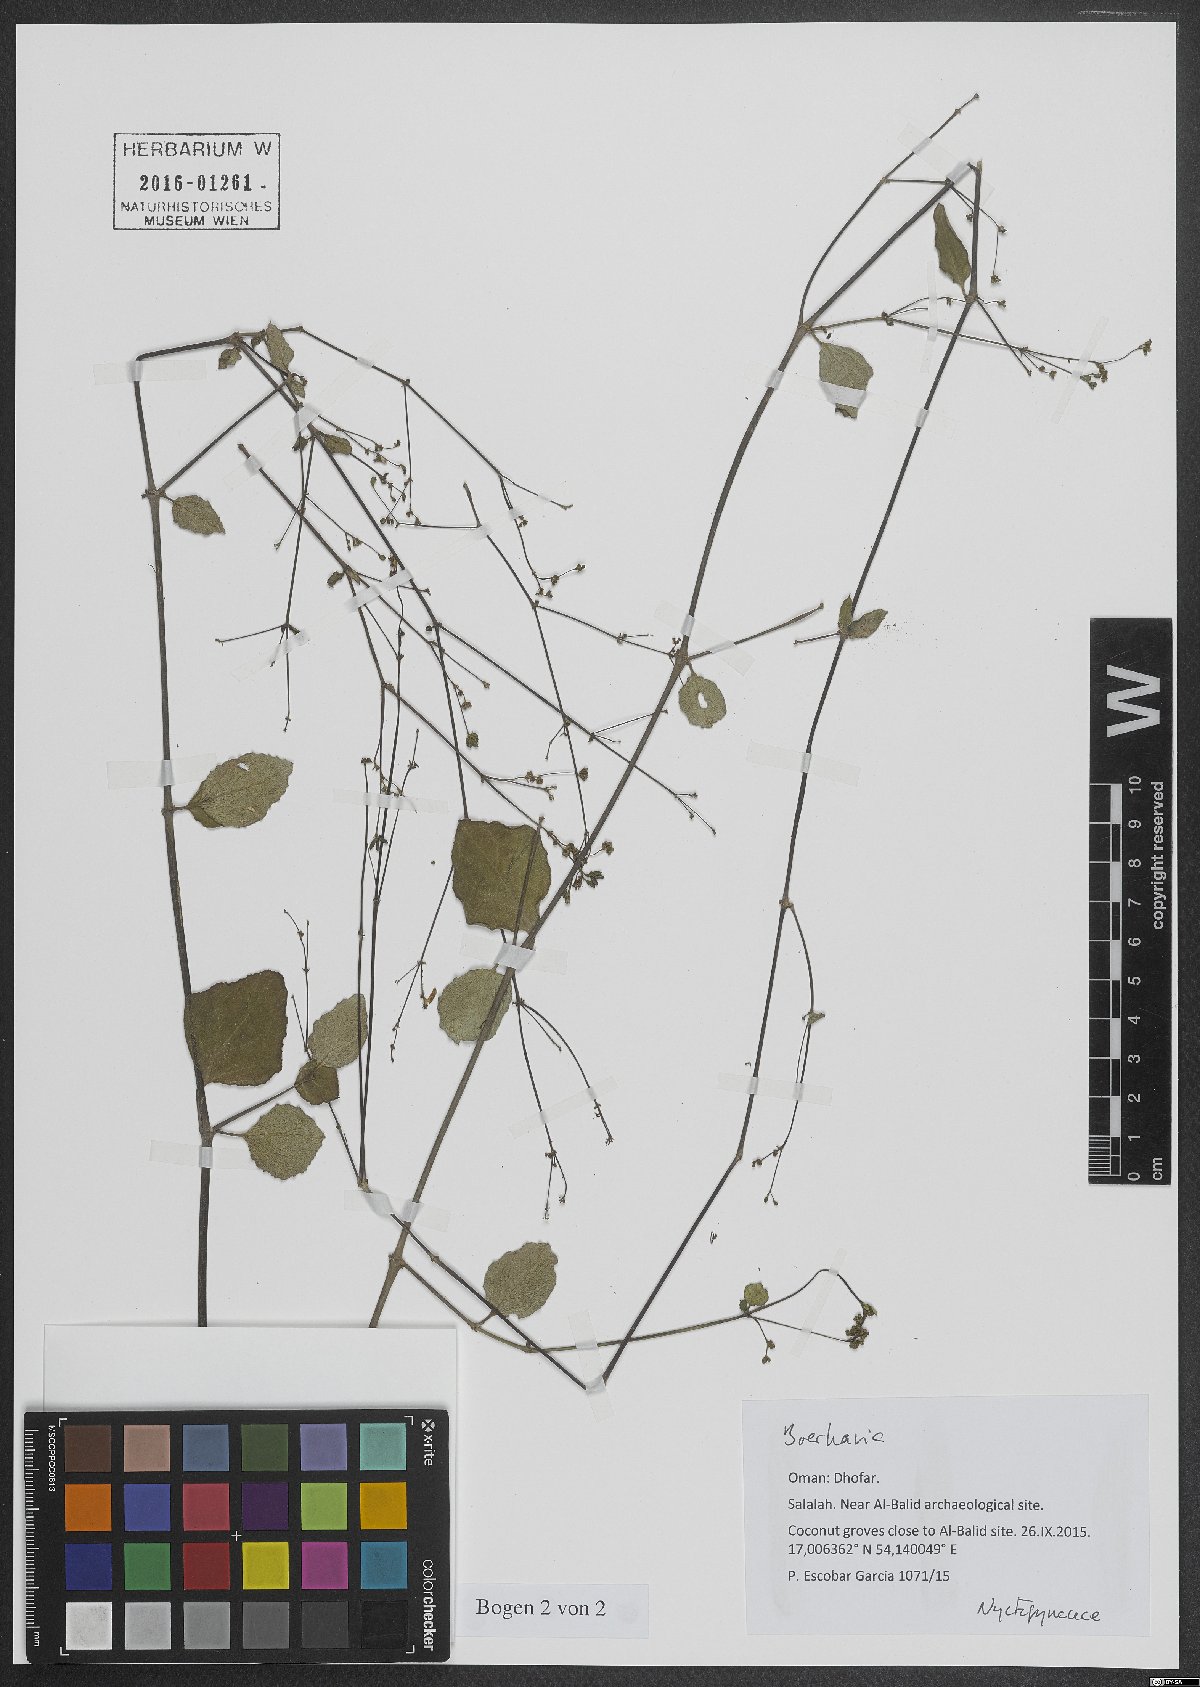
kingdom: Plantae
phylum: Tracheophyta
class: Magnoliopsida
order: Caryophyllales
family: Nyctaginaceae
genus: Boerhavia
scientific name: Boerhavia
